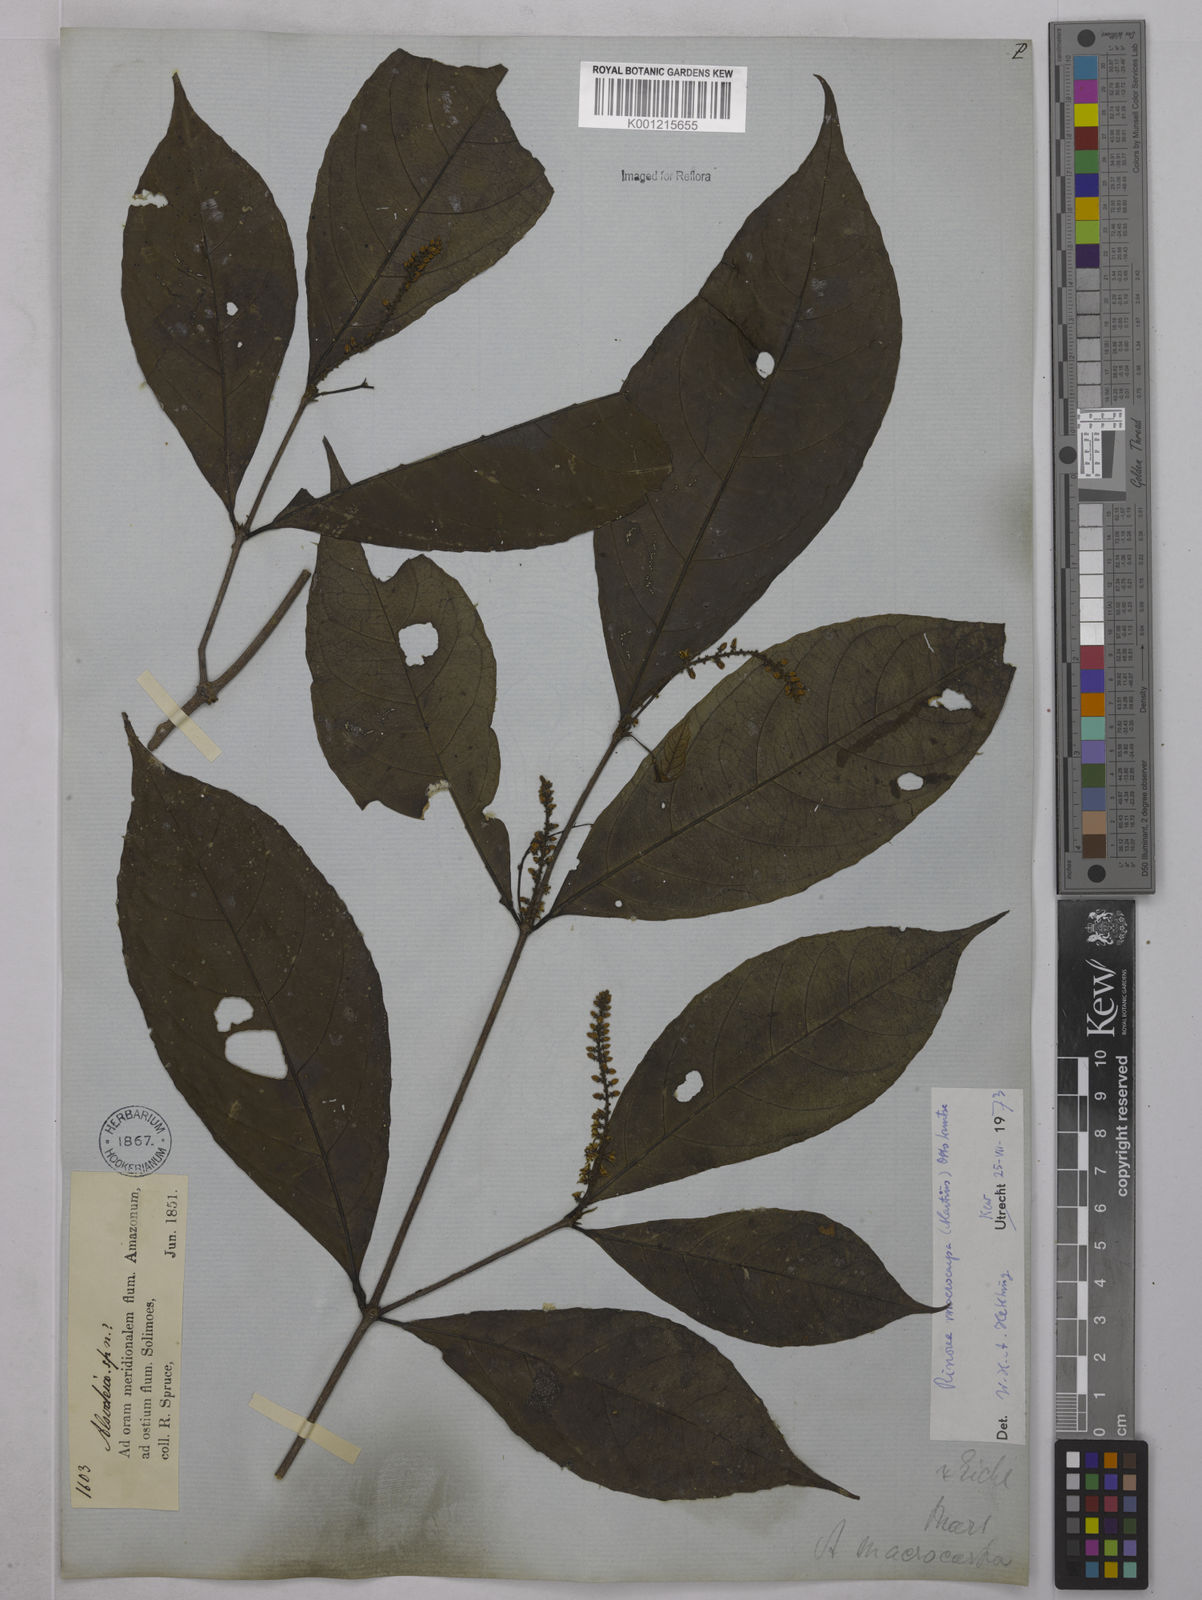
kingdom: Plantae
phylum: Tracheophyta
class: Magnoliopsida
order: Malpighiales
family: Violaceae
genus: Rinorea
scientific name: Rinorea macrocarpa
